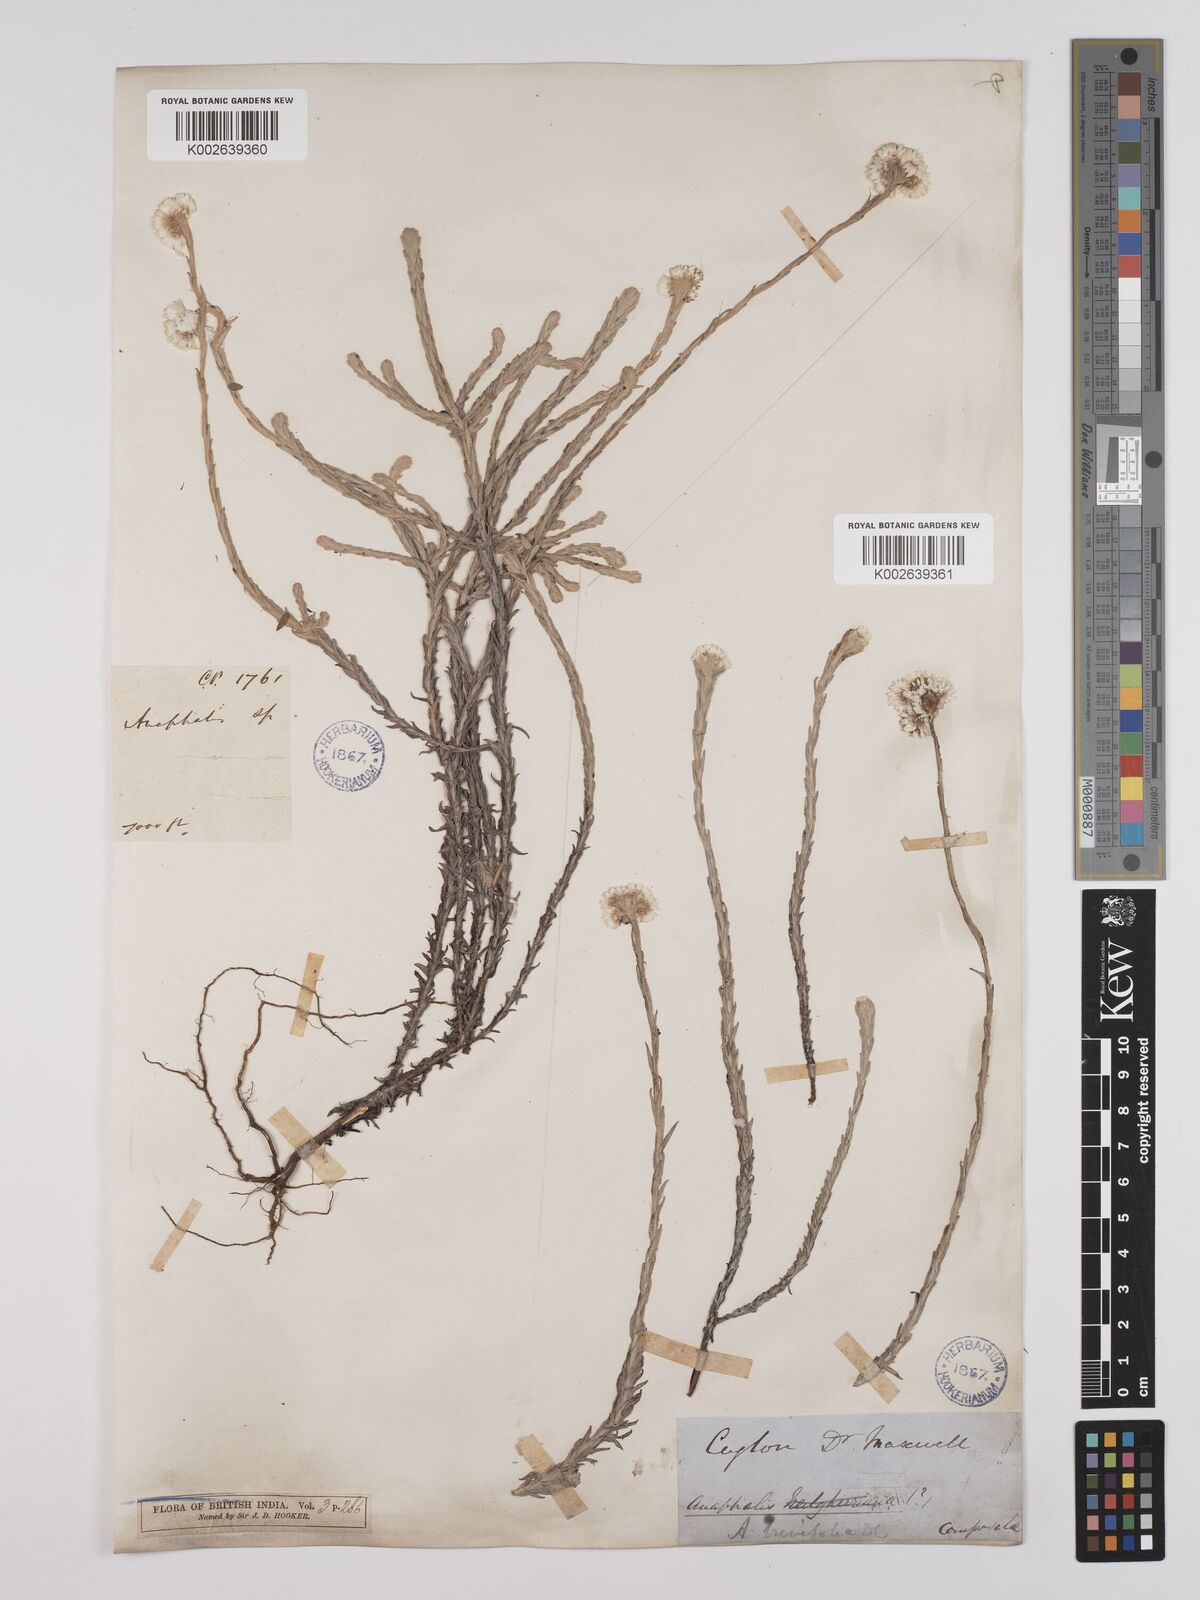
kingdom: Plantae
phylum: Tracheophyta
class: Magnoliopsida
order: Asterales
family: Asteraceae
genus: Anaphalis
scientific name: Anaphalis brevifolia
